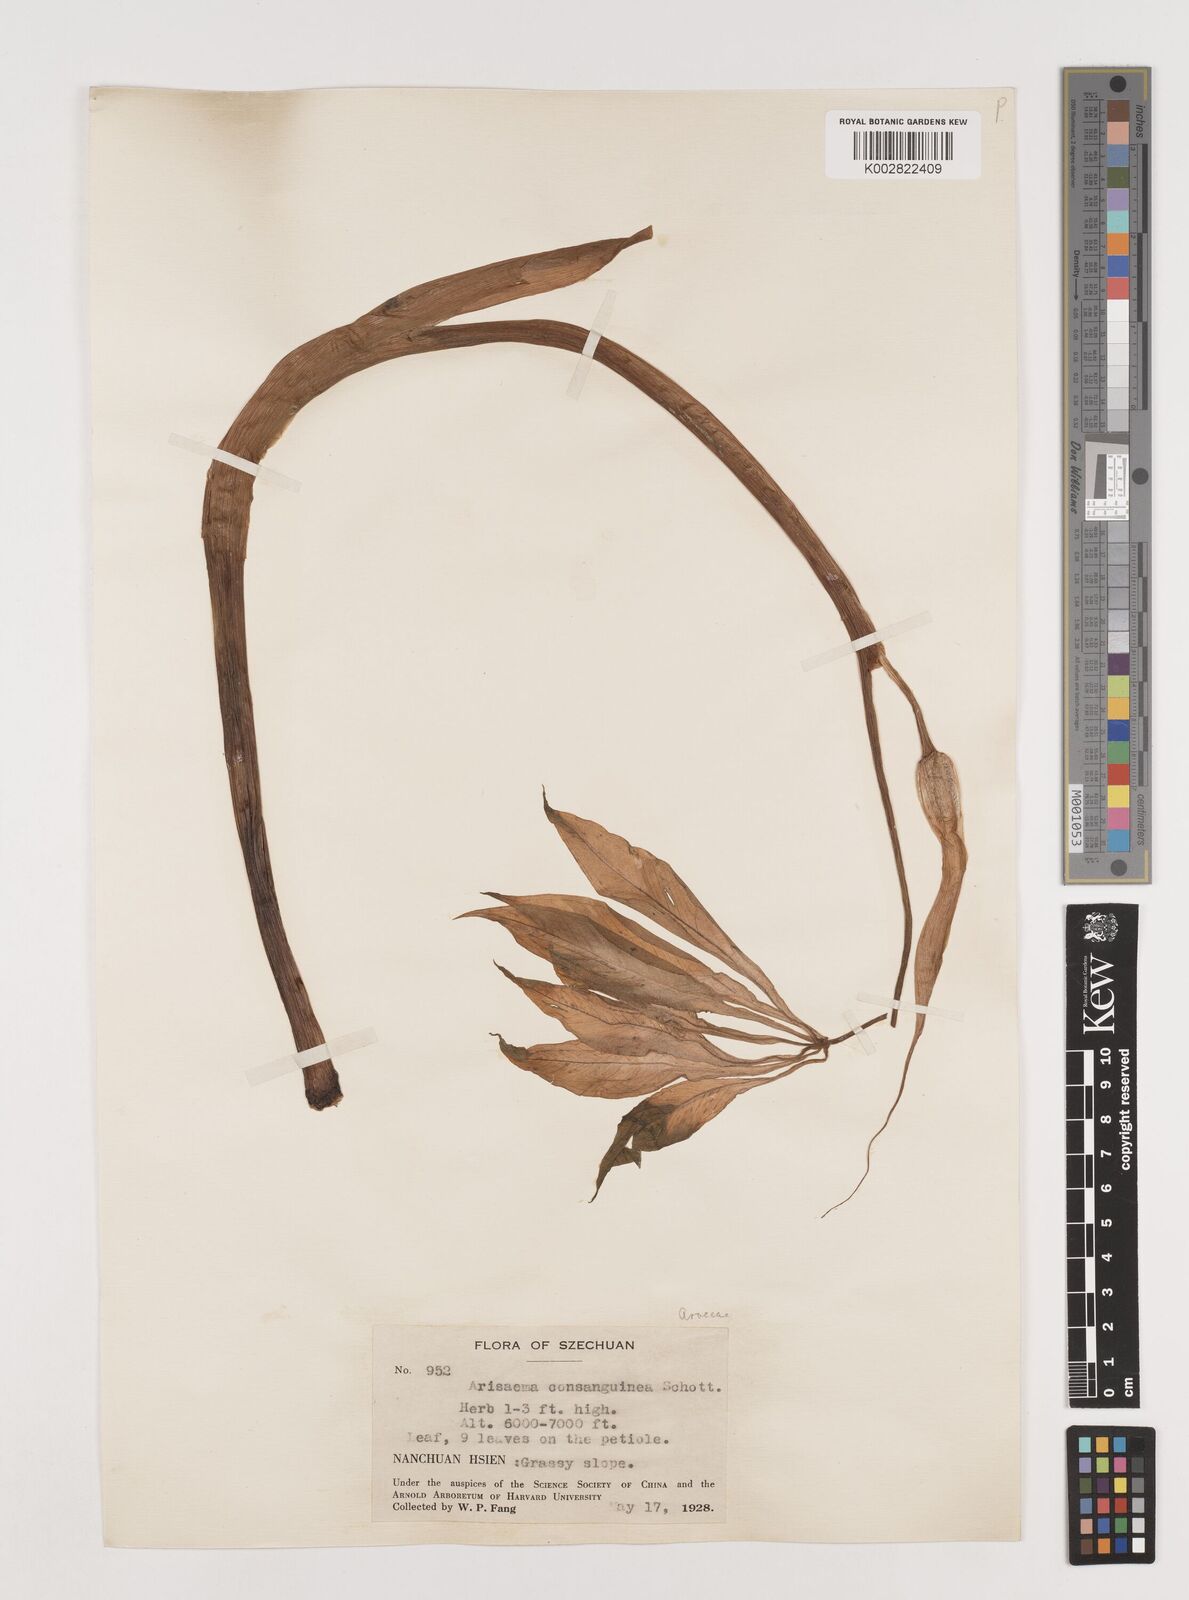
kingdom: Plantae
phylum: Tracheophyta
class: Liliopsida
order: Alismatales
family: Araceae
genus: Arisaema
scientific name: Arisaema erubescens
